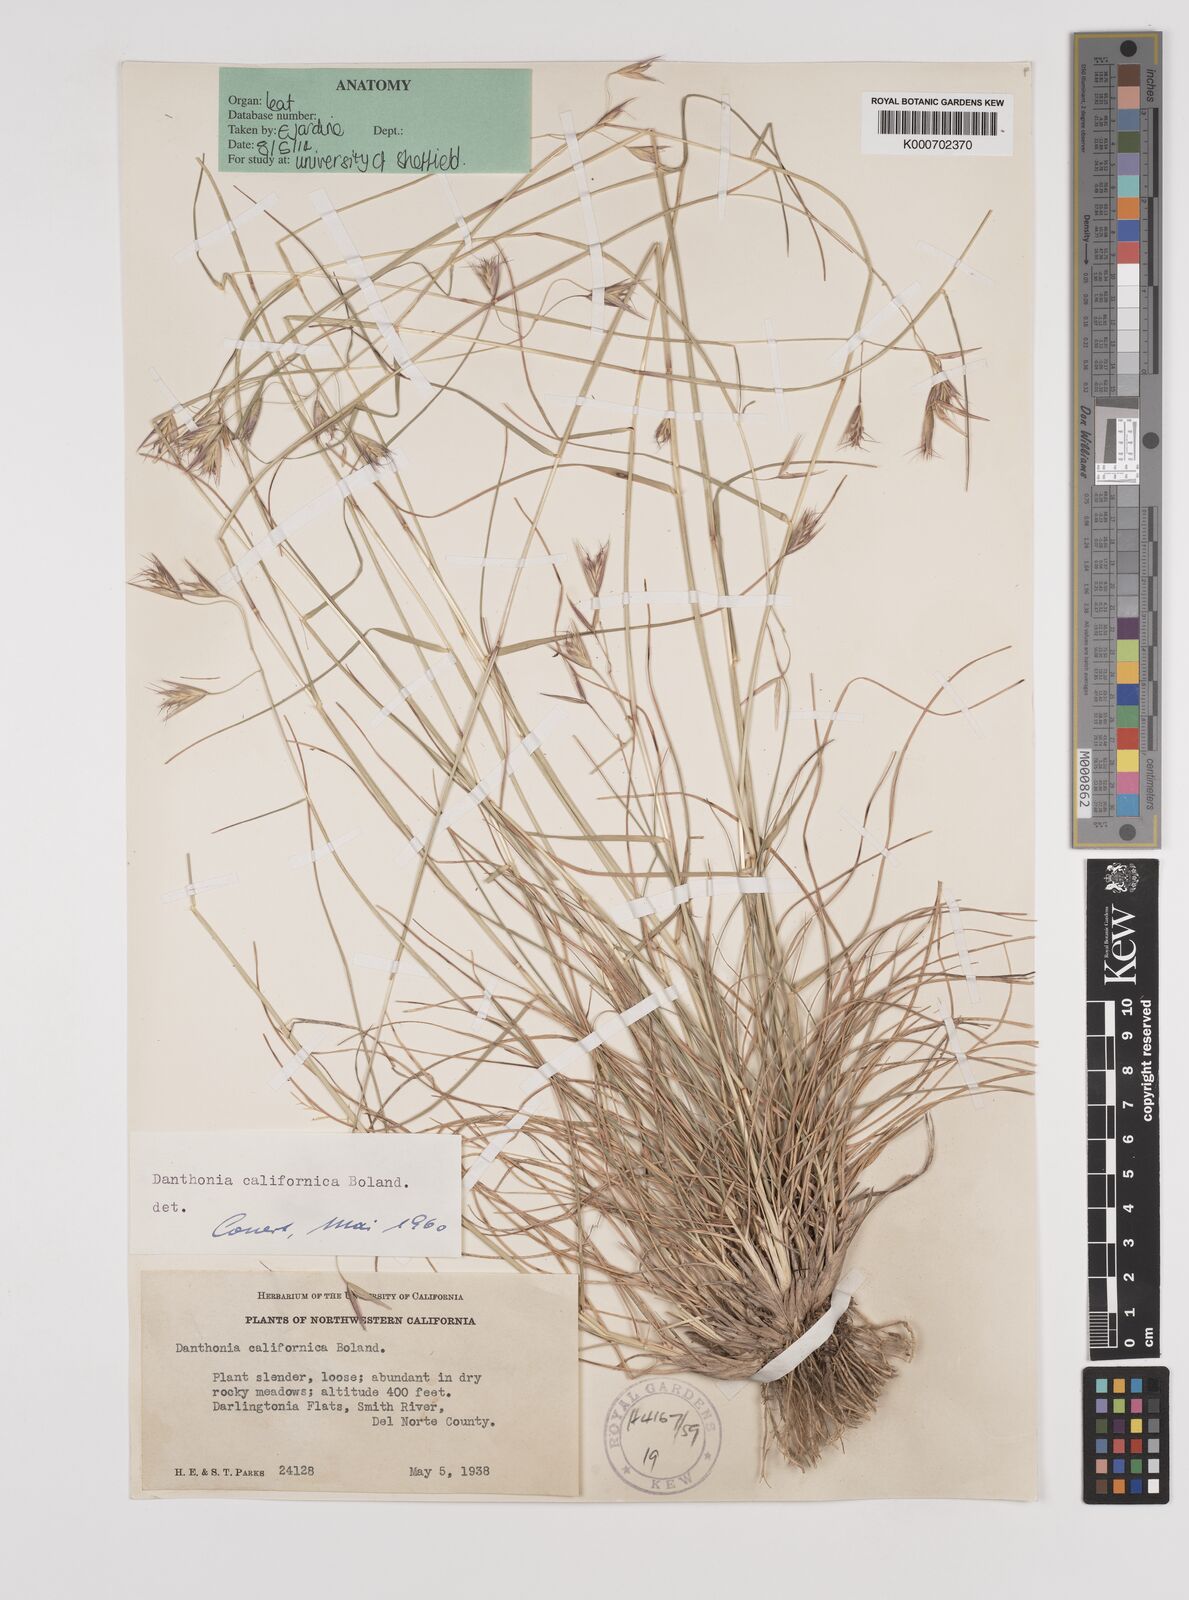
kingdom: Plantae
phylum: Tracheophyta
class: Liliopsida
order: Poales
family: Poaceae
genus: Danthonia
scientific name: Danthonia californica
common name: California oat grass
